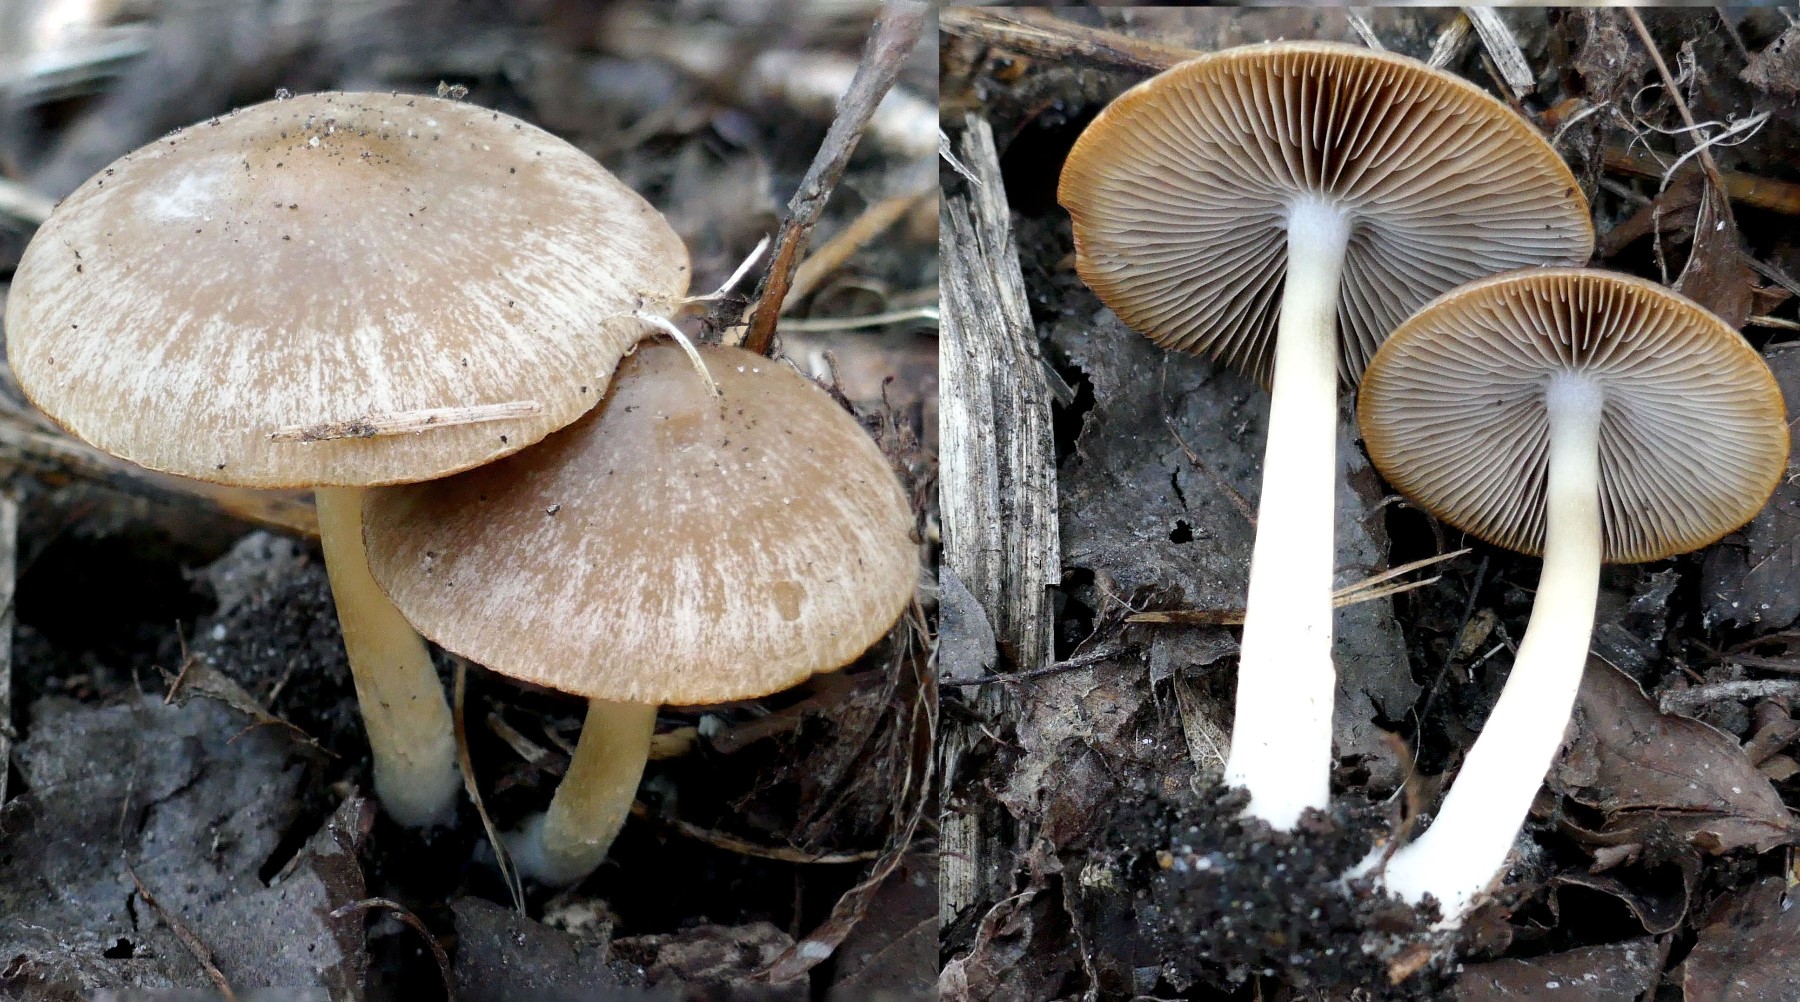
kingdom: Fungi
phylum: Basidiomycota
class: Agaricomycetes
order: Agaricales
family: Psathyrellaceae
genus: Psathyrella
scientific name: Psathyrella spadiceogrisea
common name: gråbrun mørkhat
